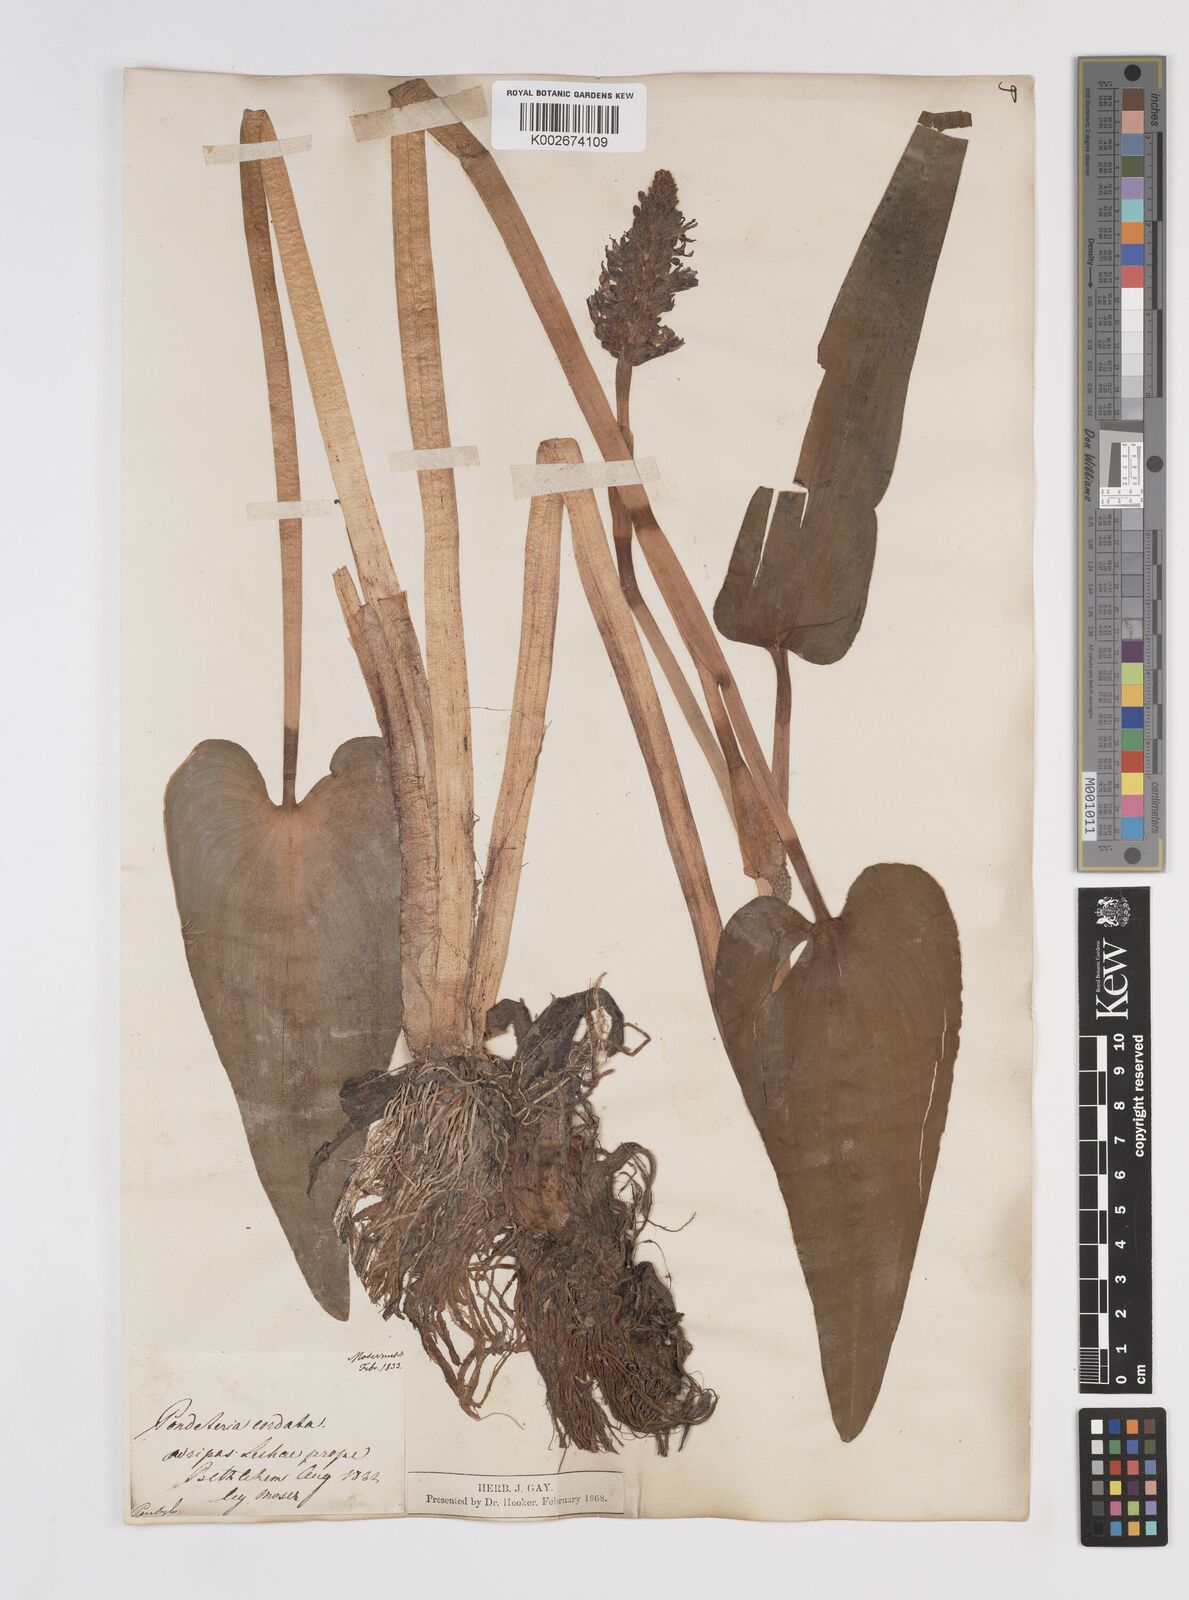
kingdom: Plantae
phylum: Tracheophyta
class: Liliopsida
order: Commelinales
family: Pontederiaceae
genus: Pontederia
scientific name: Pontederia cordata
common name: Pickerelweed
